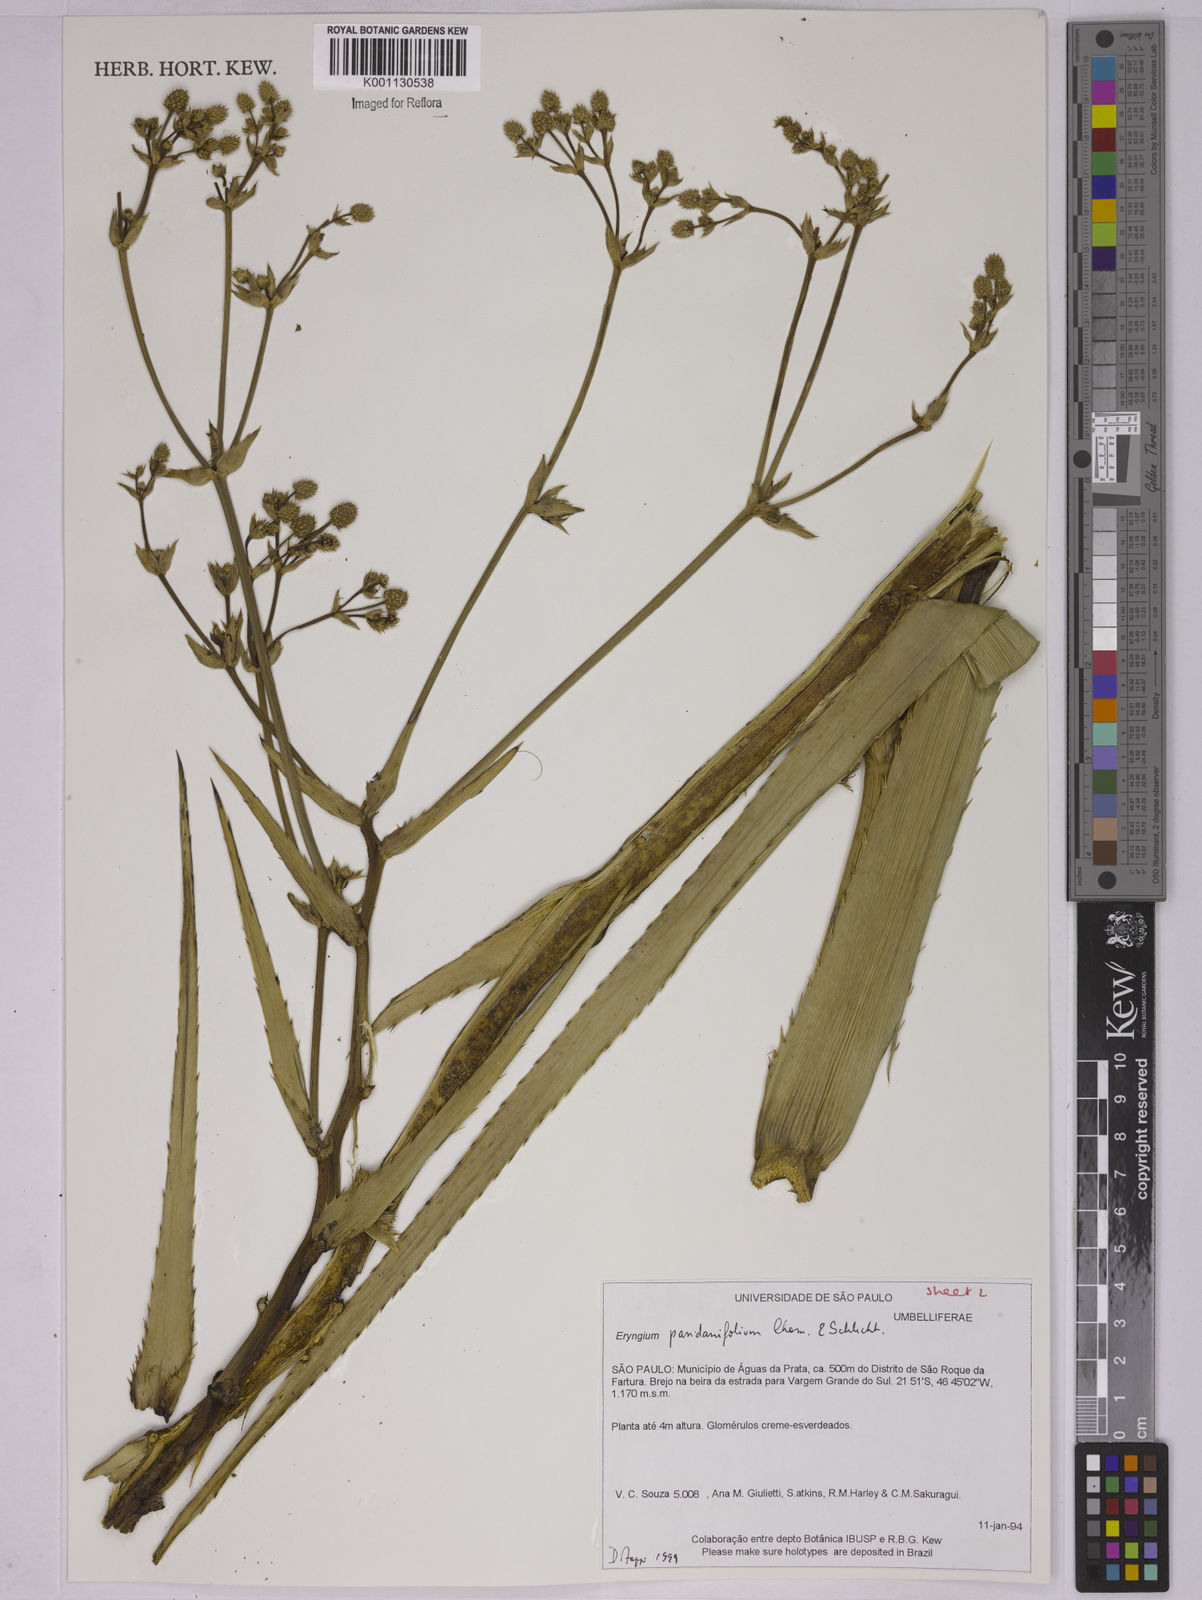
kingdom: Plantae
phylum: Tracheophyta
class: Magnoliopsida
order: Apiales
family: Apiaceae
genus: Eryngium
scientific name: Eryngium pandanifolium
